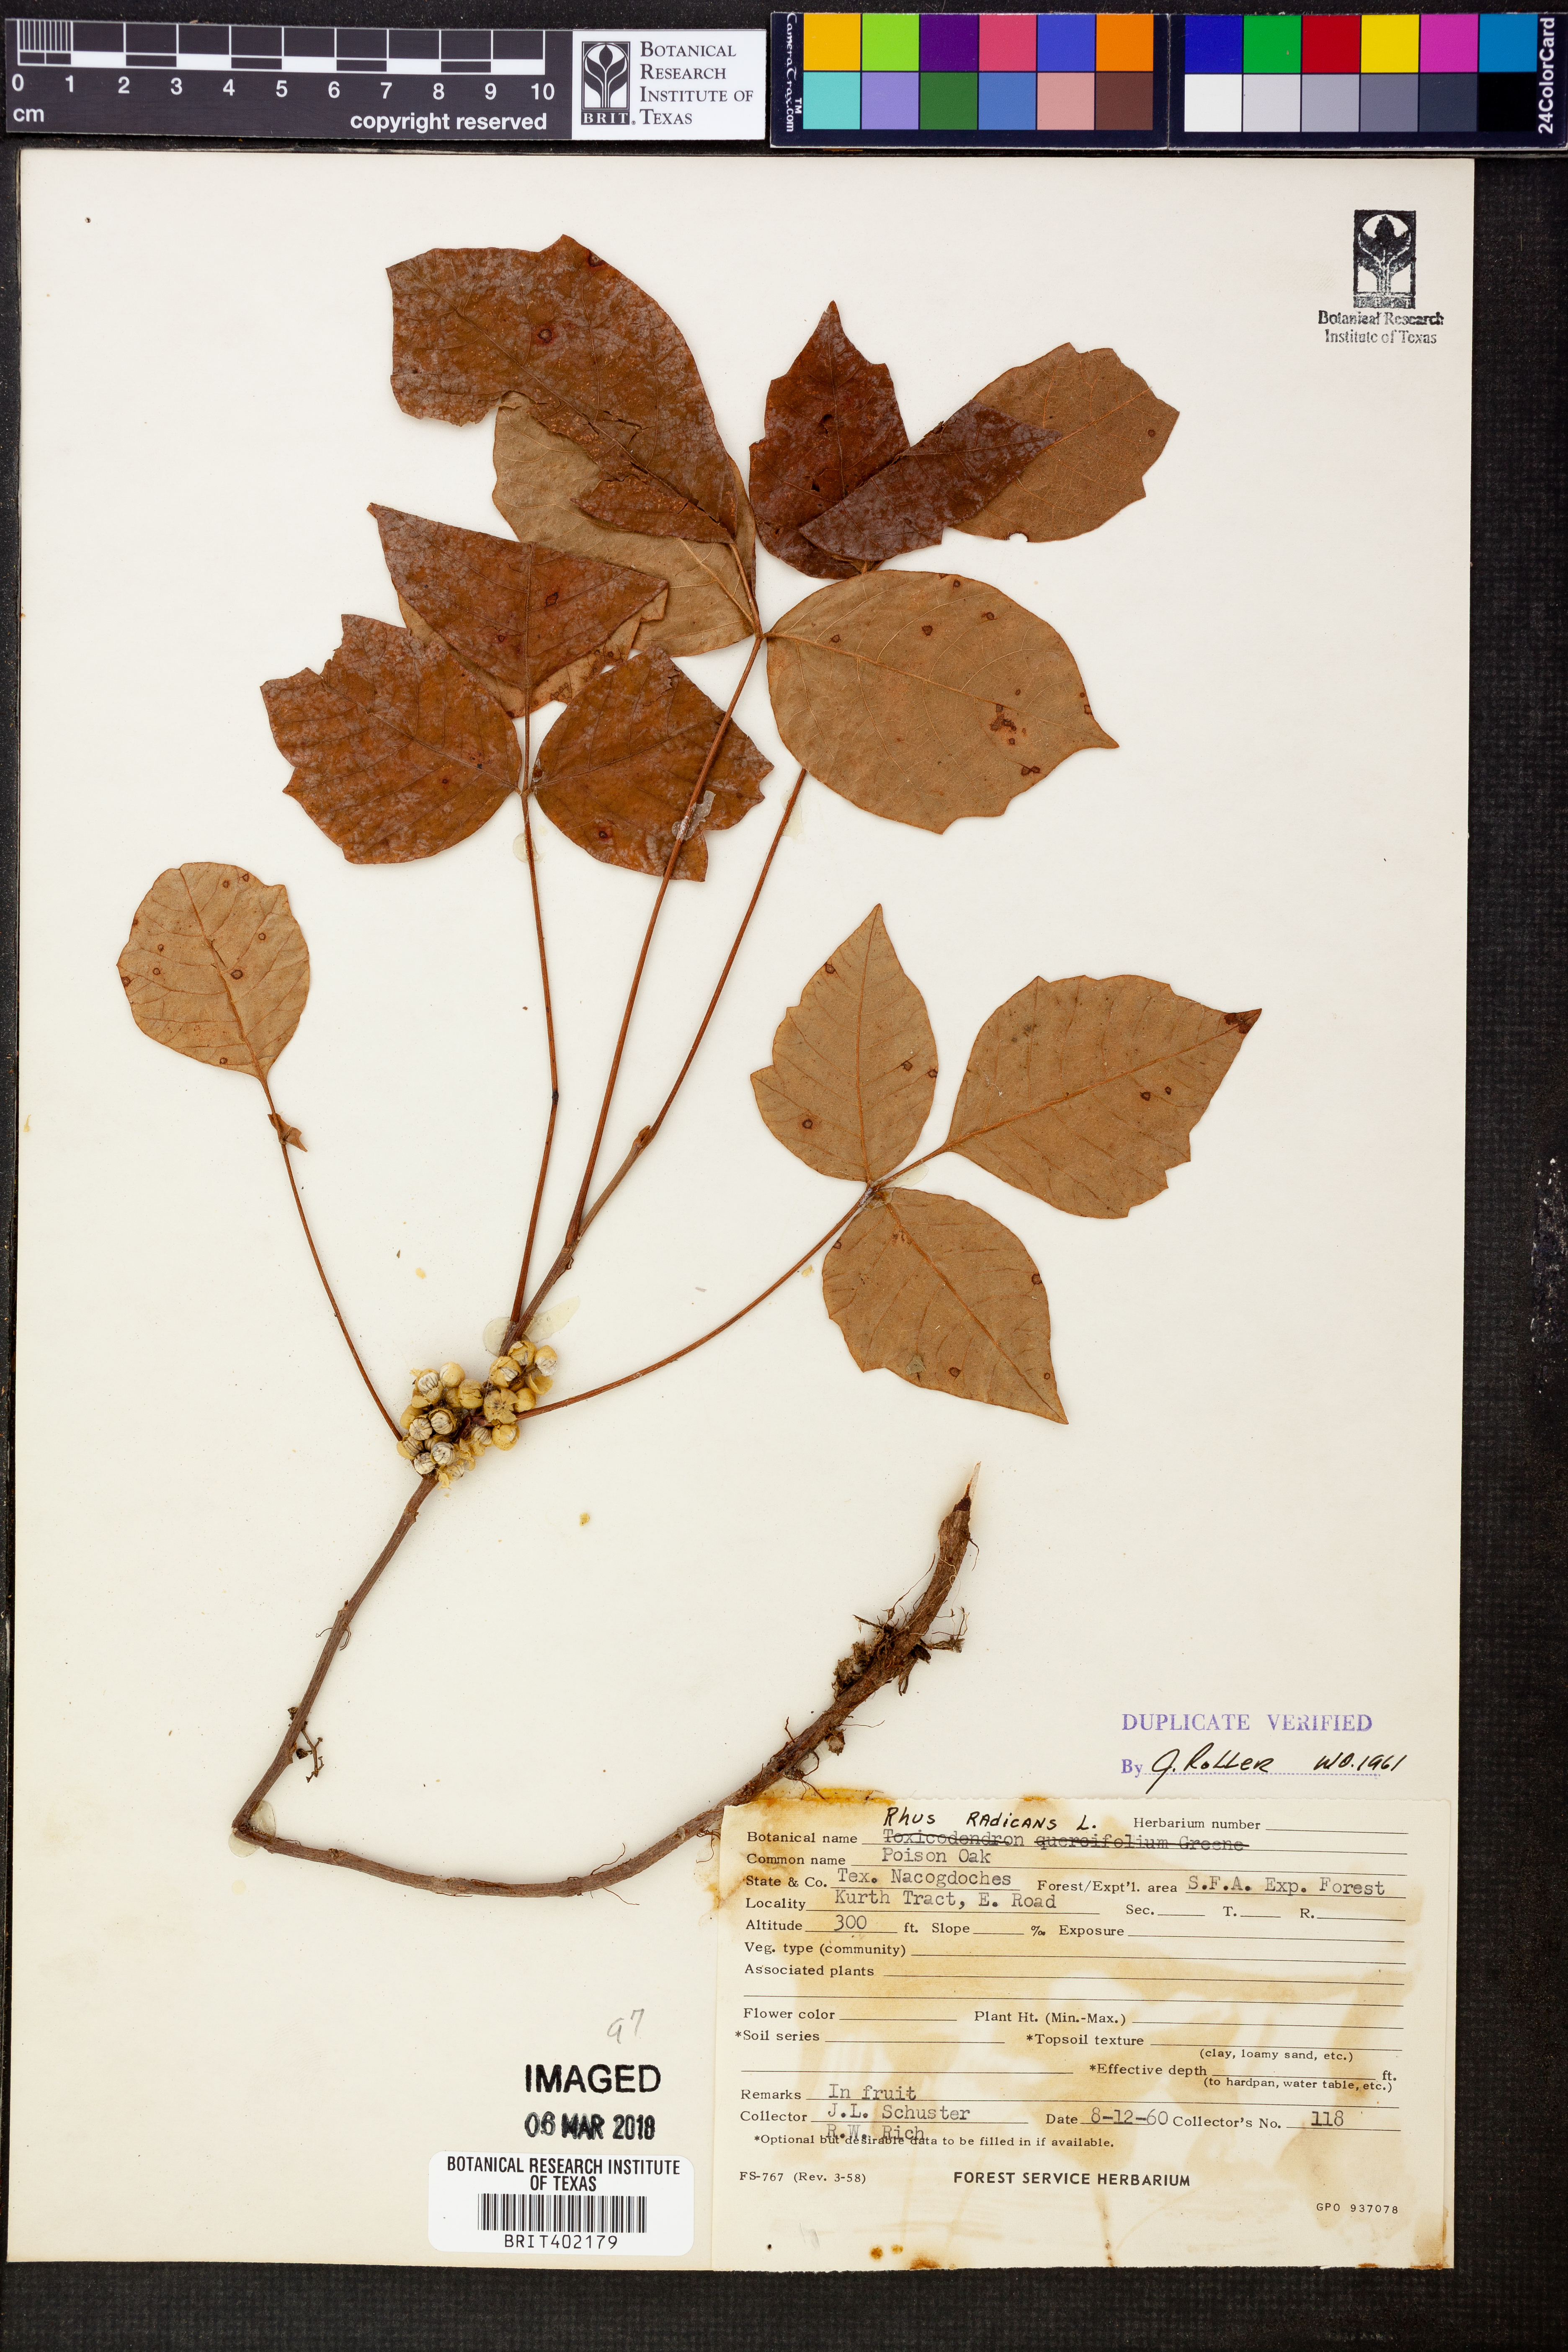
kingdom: Plantae
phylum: Tracheophyta
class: Magnoliopsida
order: Sapindales
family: Anacardiaceae
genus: Toxicodendron
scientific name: Toxicodendron radicans
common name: Poison ivy
